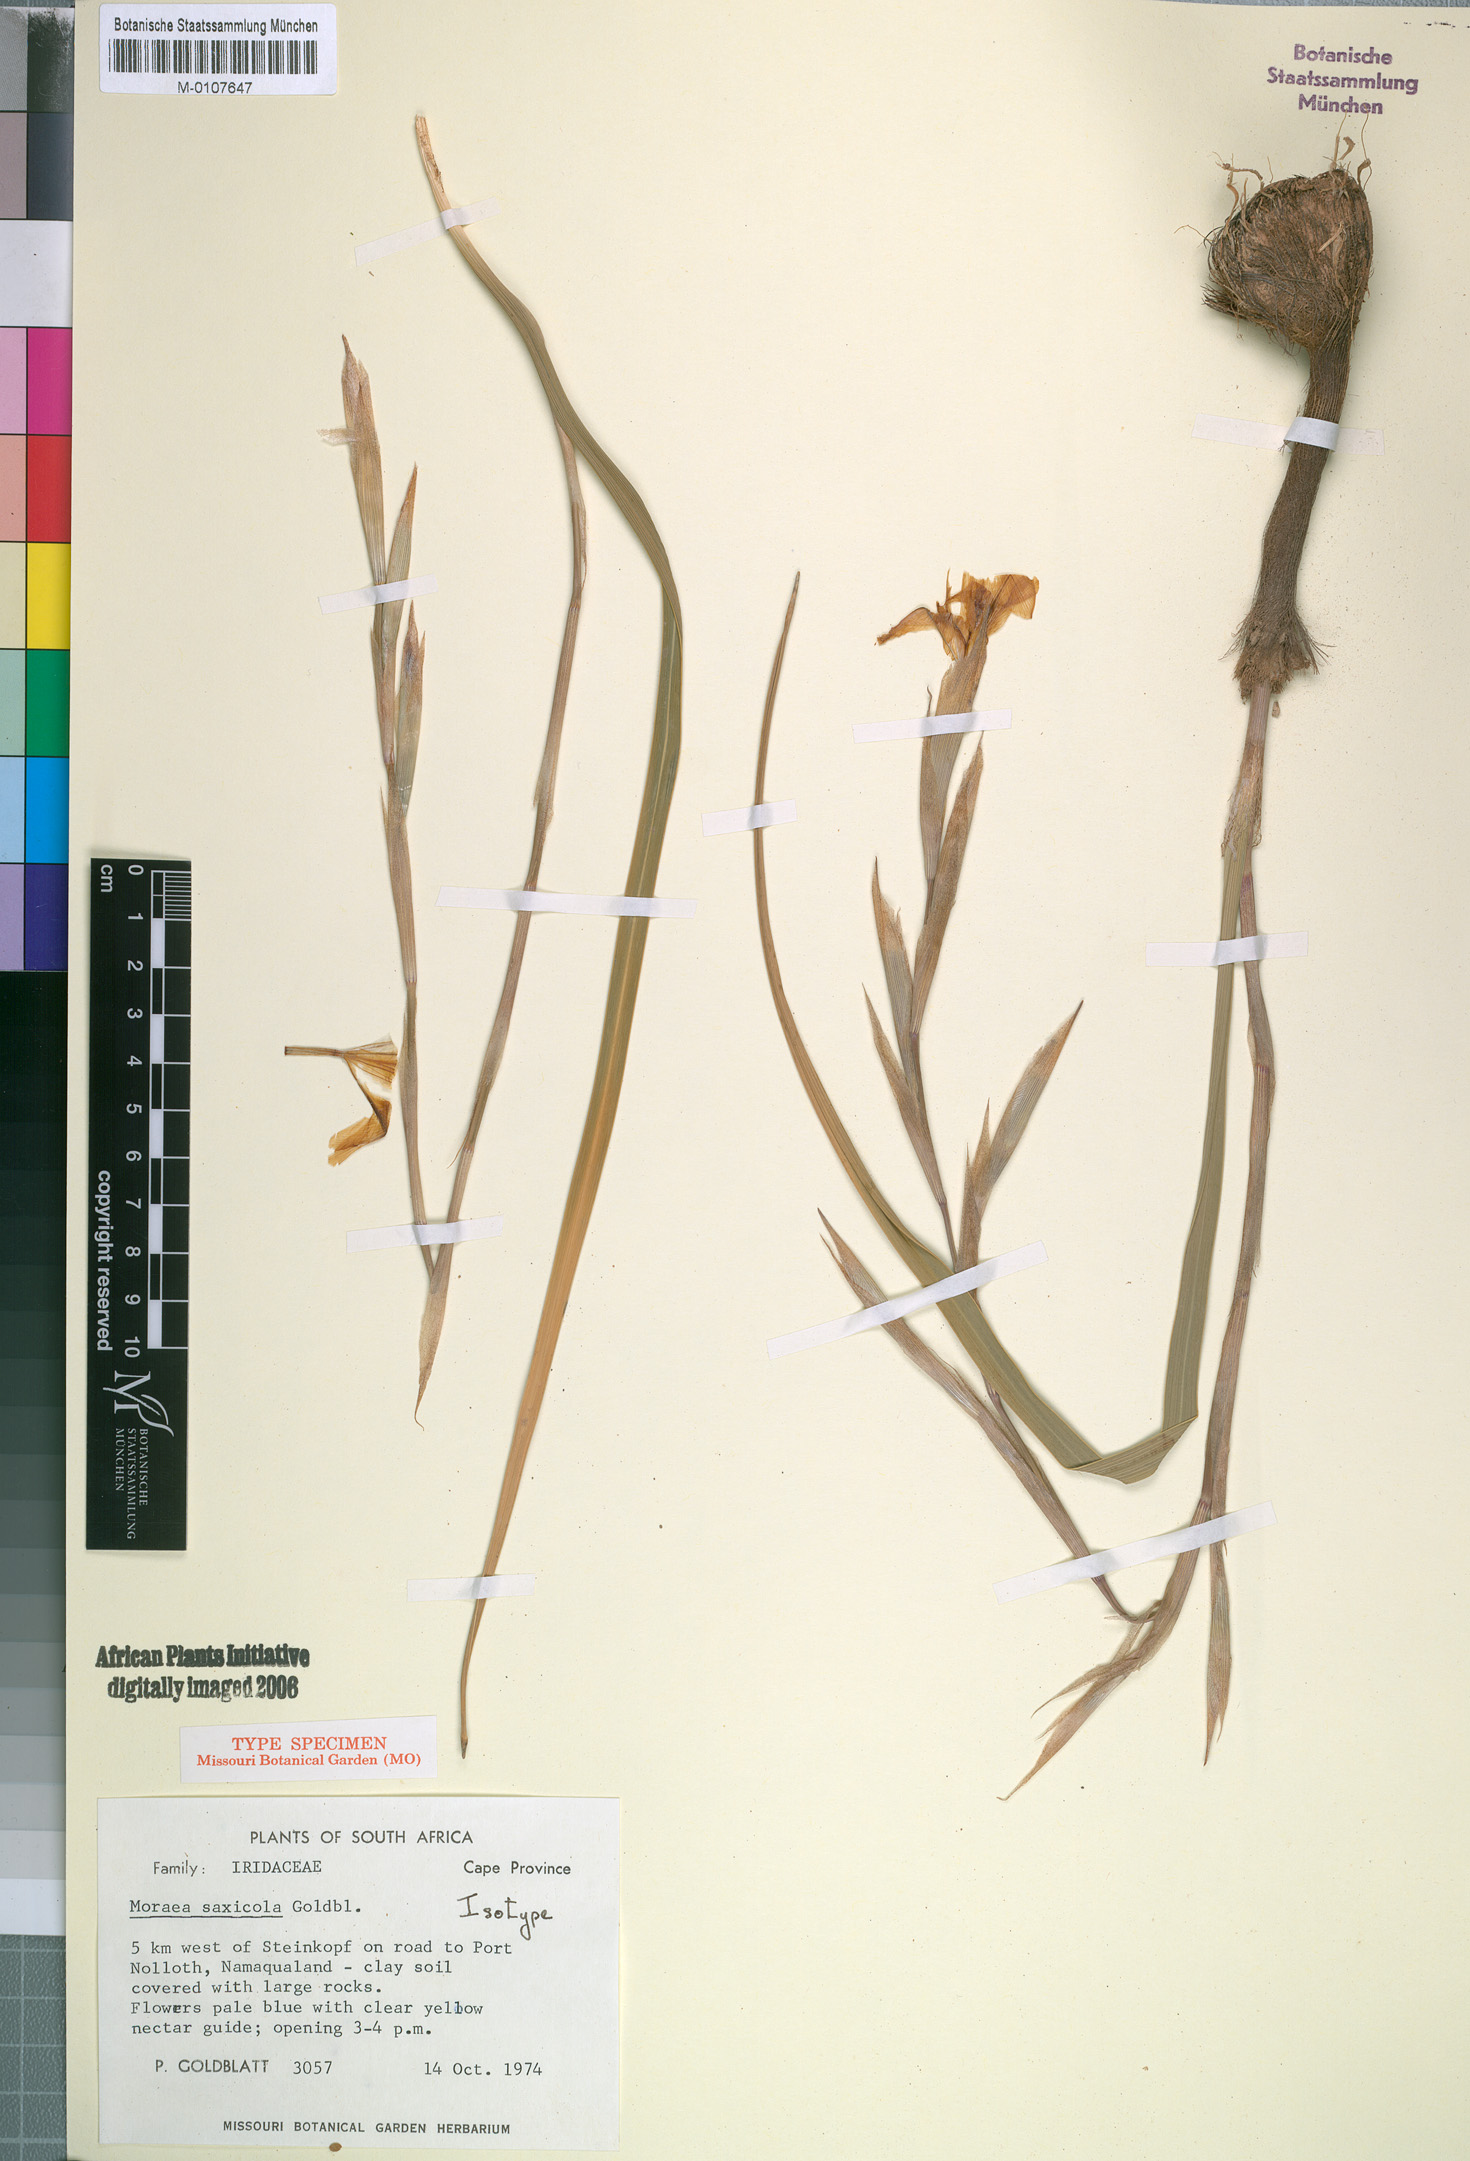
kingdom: Plantae
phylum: Tracheophyta
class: Liliopsida
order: Asparagales
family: Iridaceae
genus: Moraea
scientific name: Moraea saxicola
